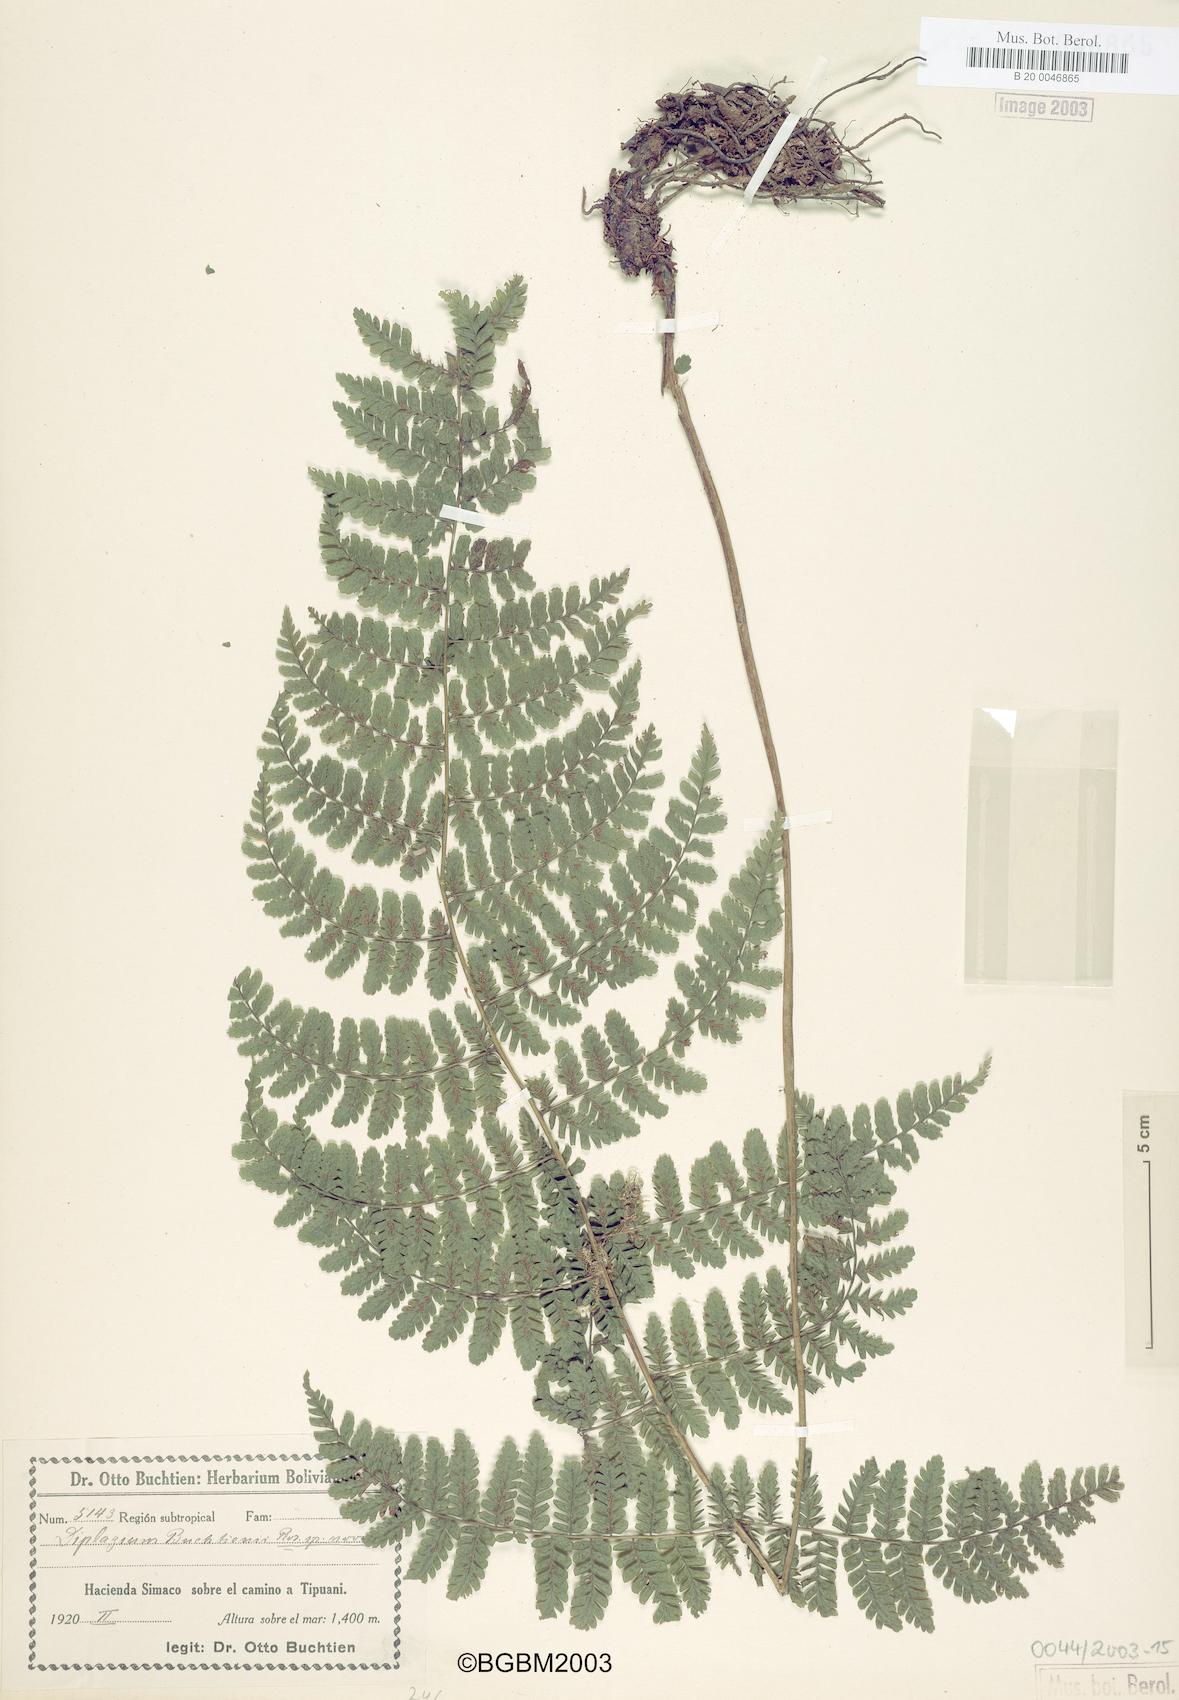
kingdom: Plantae
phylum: Tracheophyta
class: Polypodiopsida
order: Polypodiales
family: Athyriaceae
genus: Diplazium
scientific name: Diplazium buchtienii
